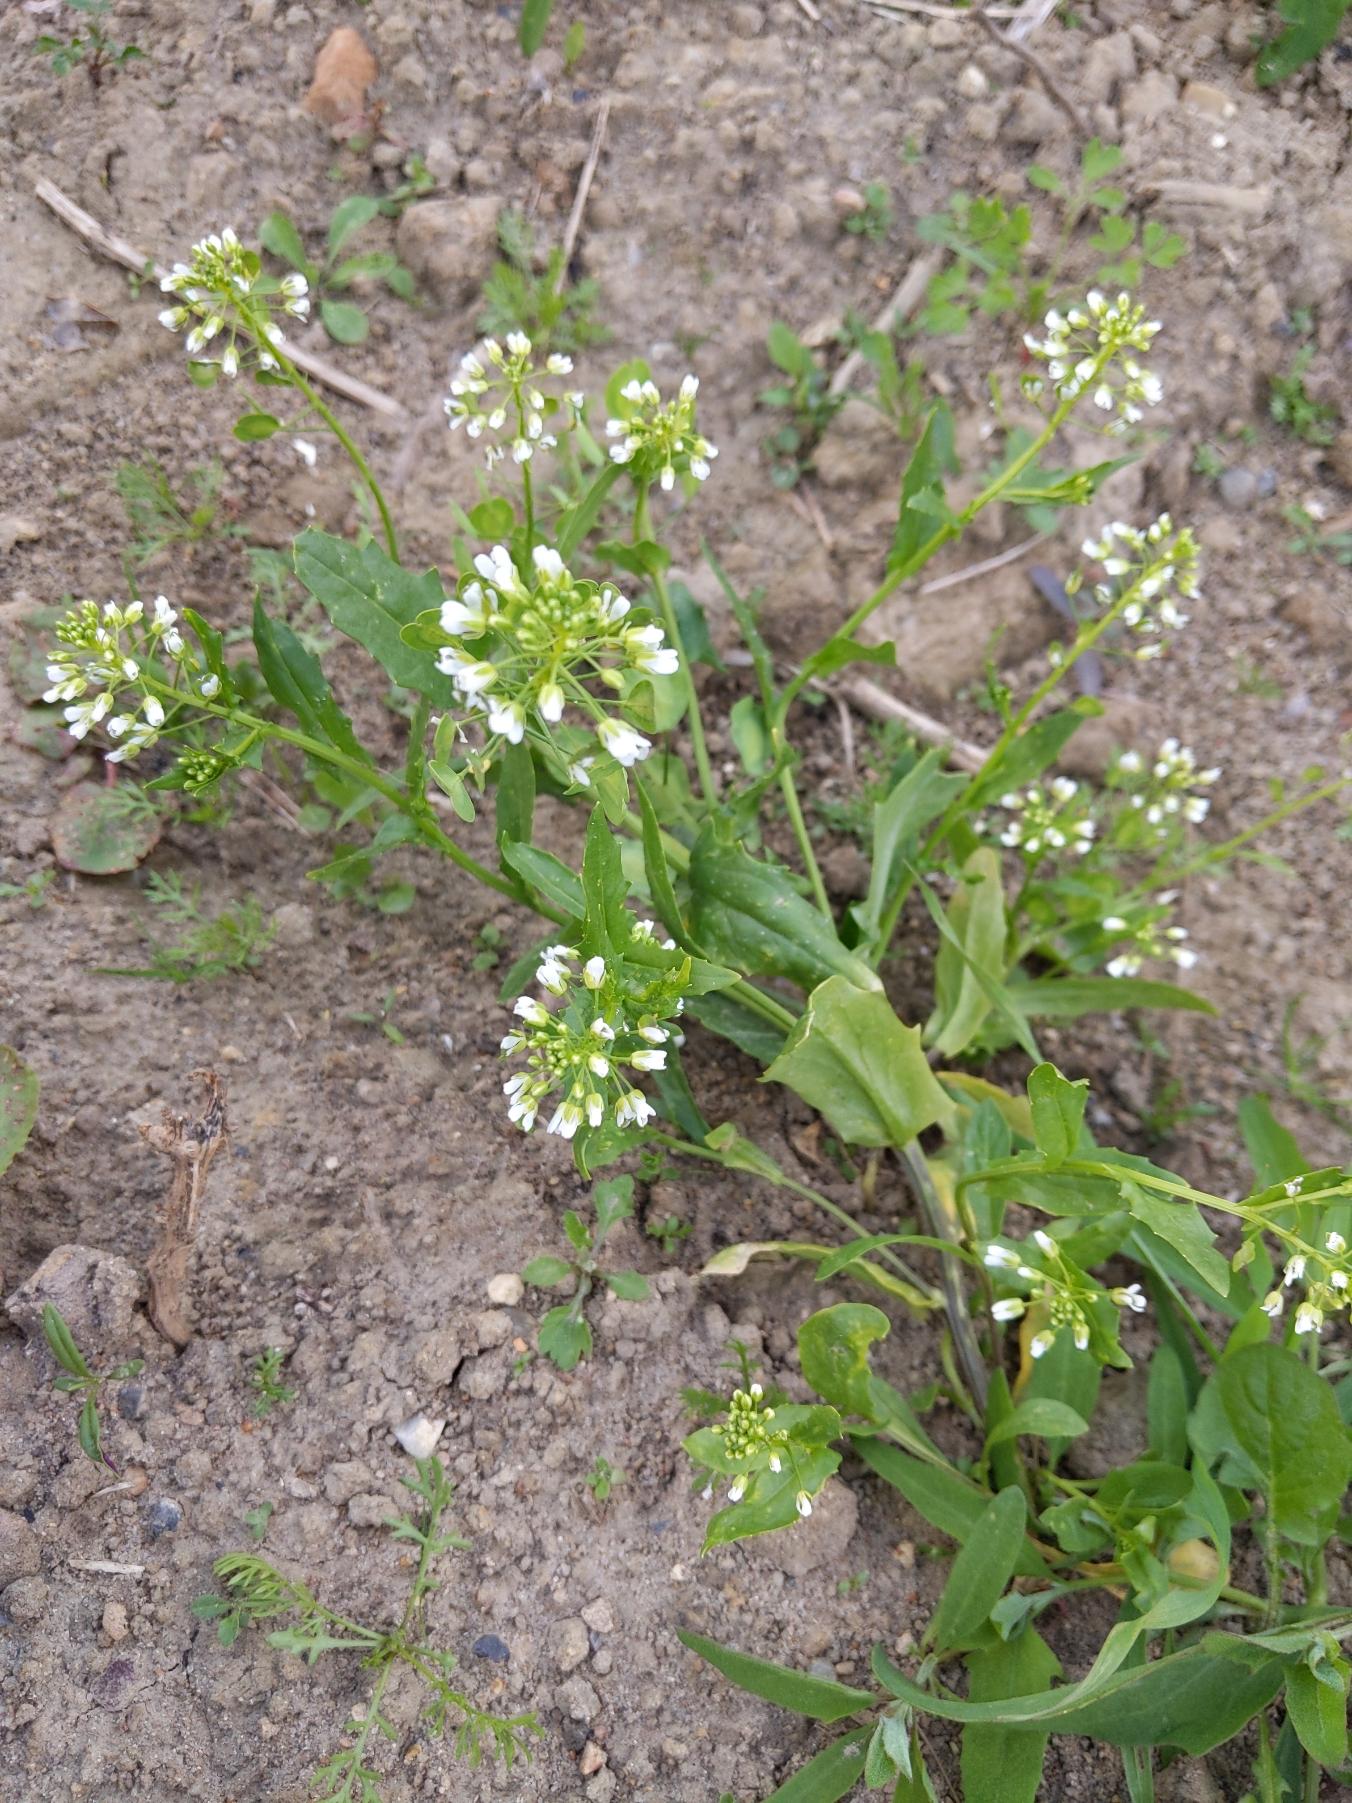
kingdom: Plantae
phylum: Tracheophyta
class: Magnoliopsida
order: Brassicales
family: Brassicaceae
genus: Thlaspi
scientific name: Thlaspi arvense
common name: Almindelig pengeurt
